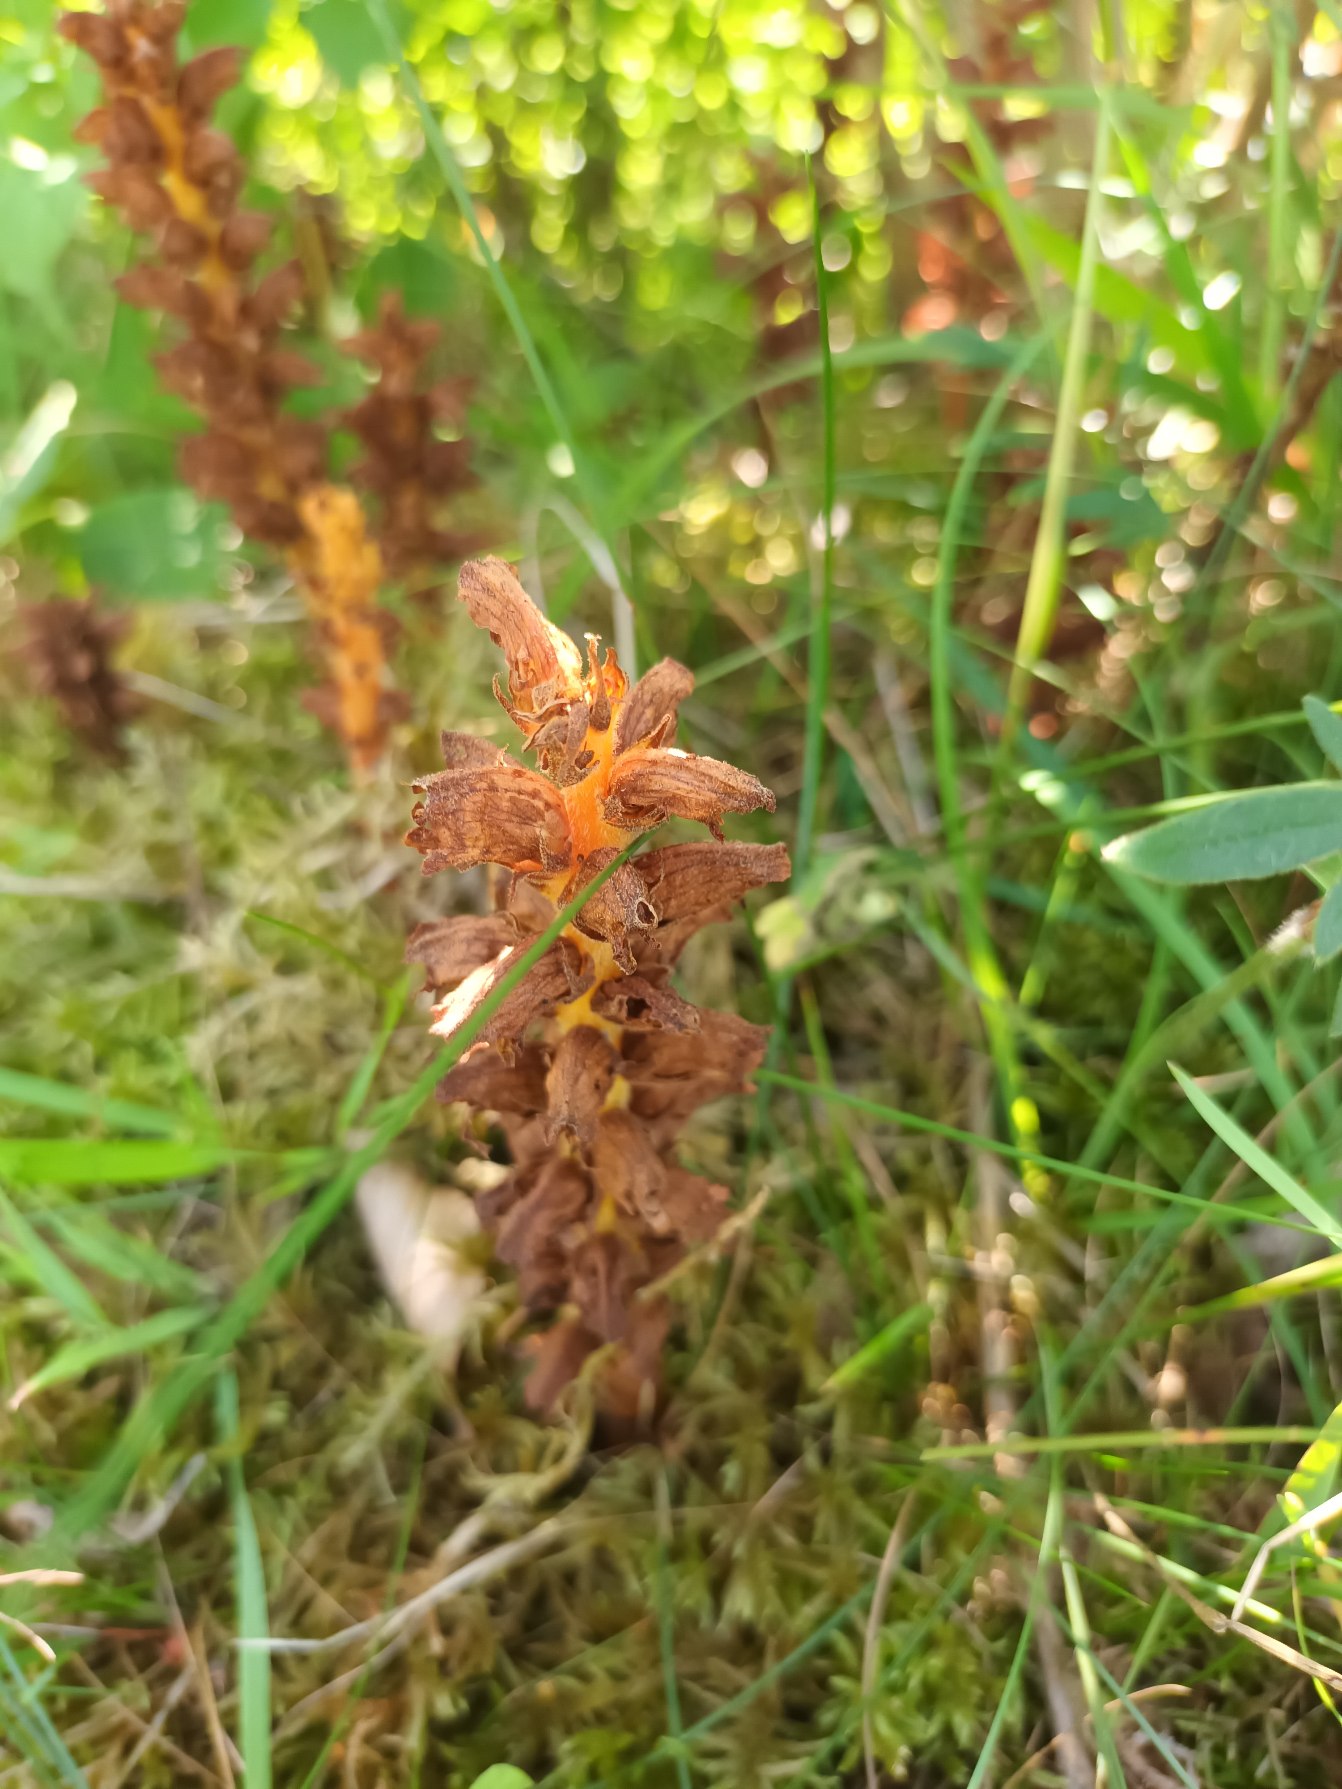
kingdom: Plantae
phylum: Tracheophyta
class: Magnoliopsida
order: Lamiales
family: Orobanchaceae
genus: Orobanche
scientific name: Orobanche lucorum
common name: Berberis-gyvelkvæler
